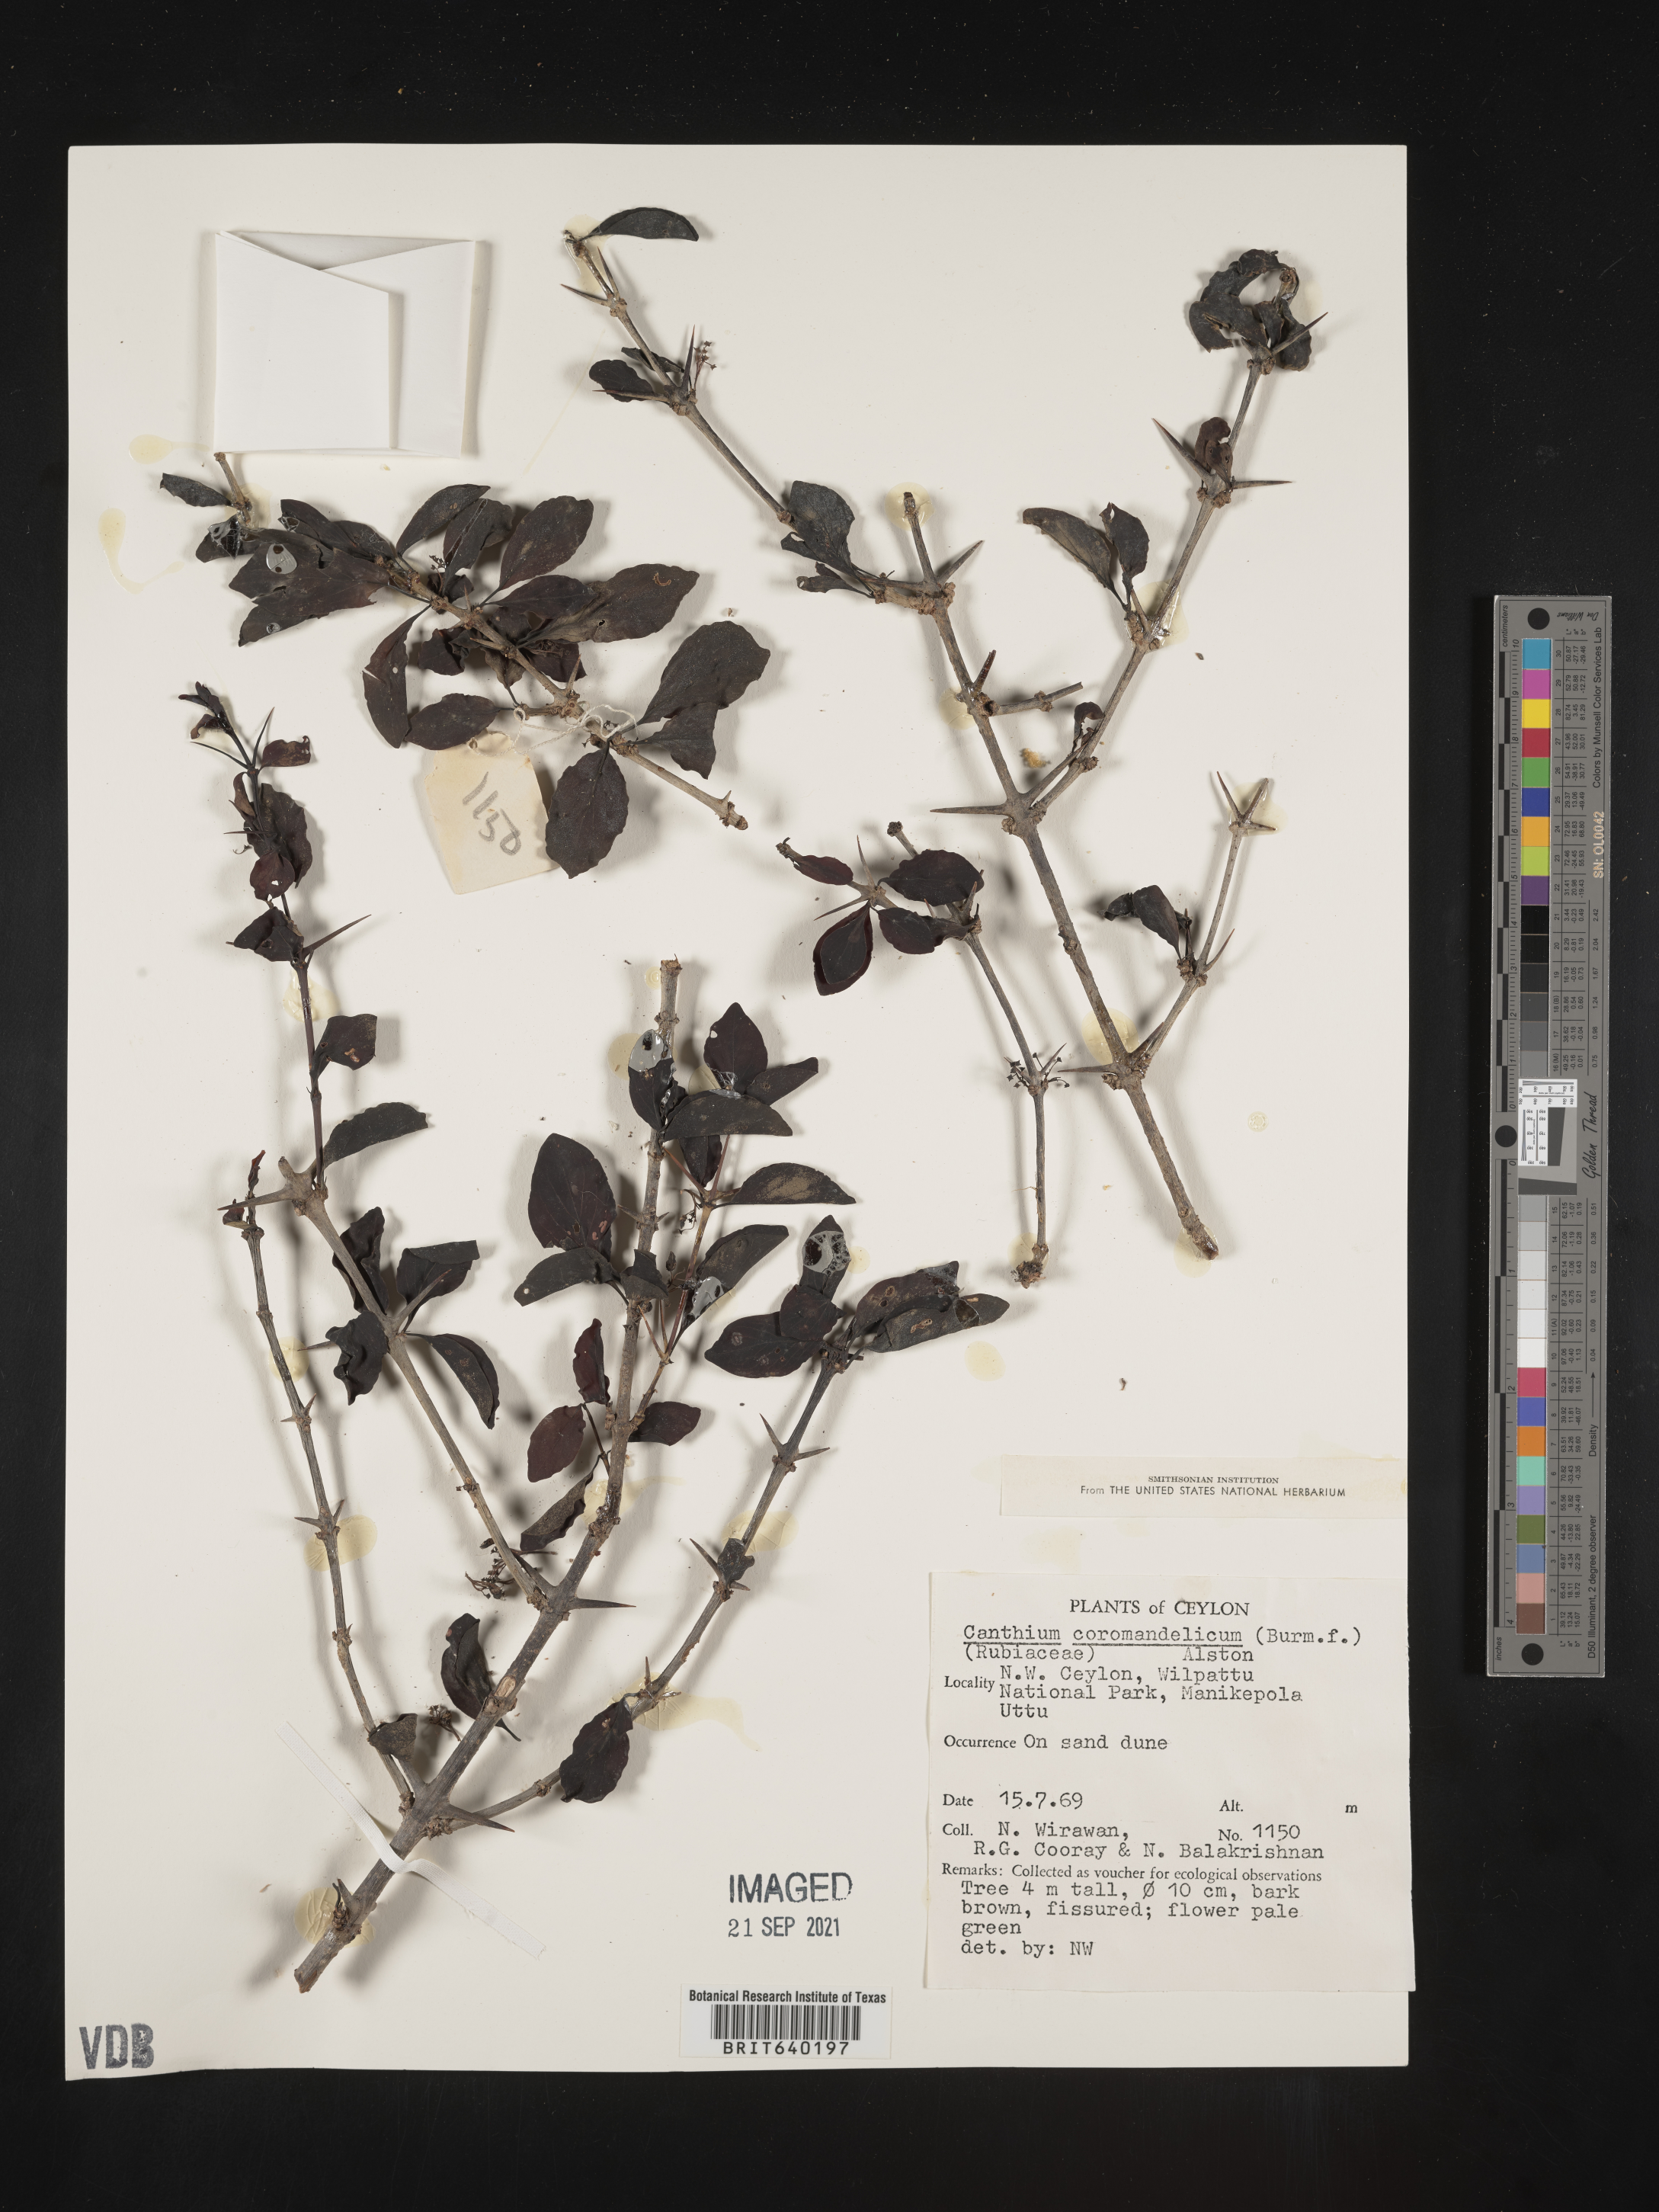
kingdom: Plantae
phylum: Tracheophyta
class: Magnoliopsida
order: Gentianales
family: Rubiaceae
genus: Canthium
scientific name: Canthium
